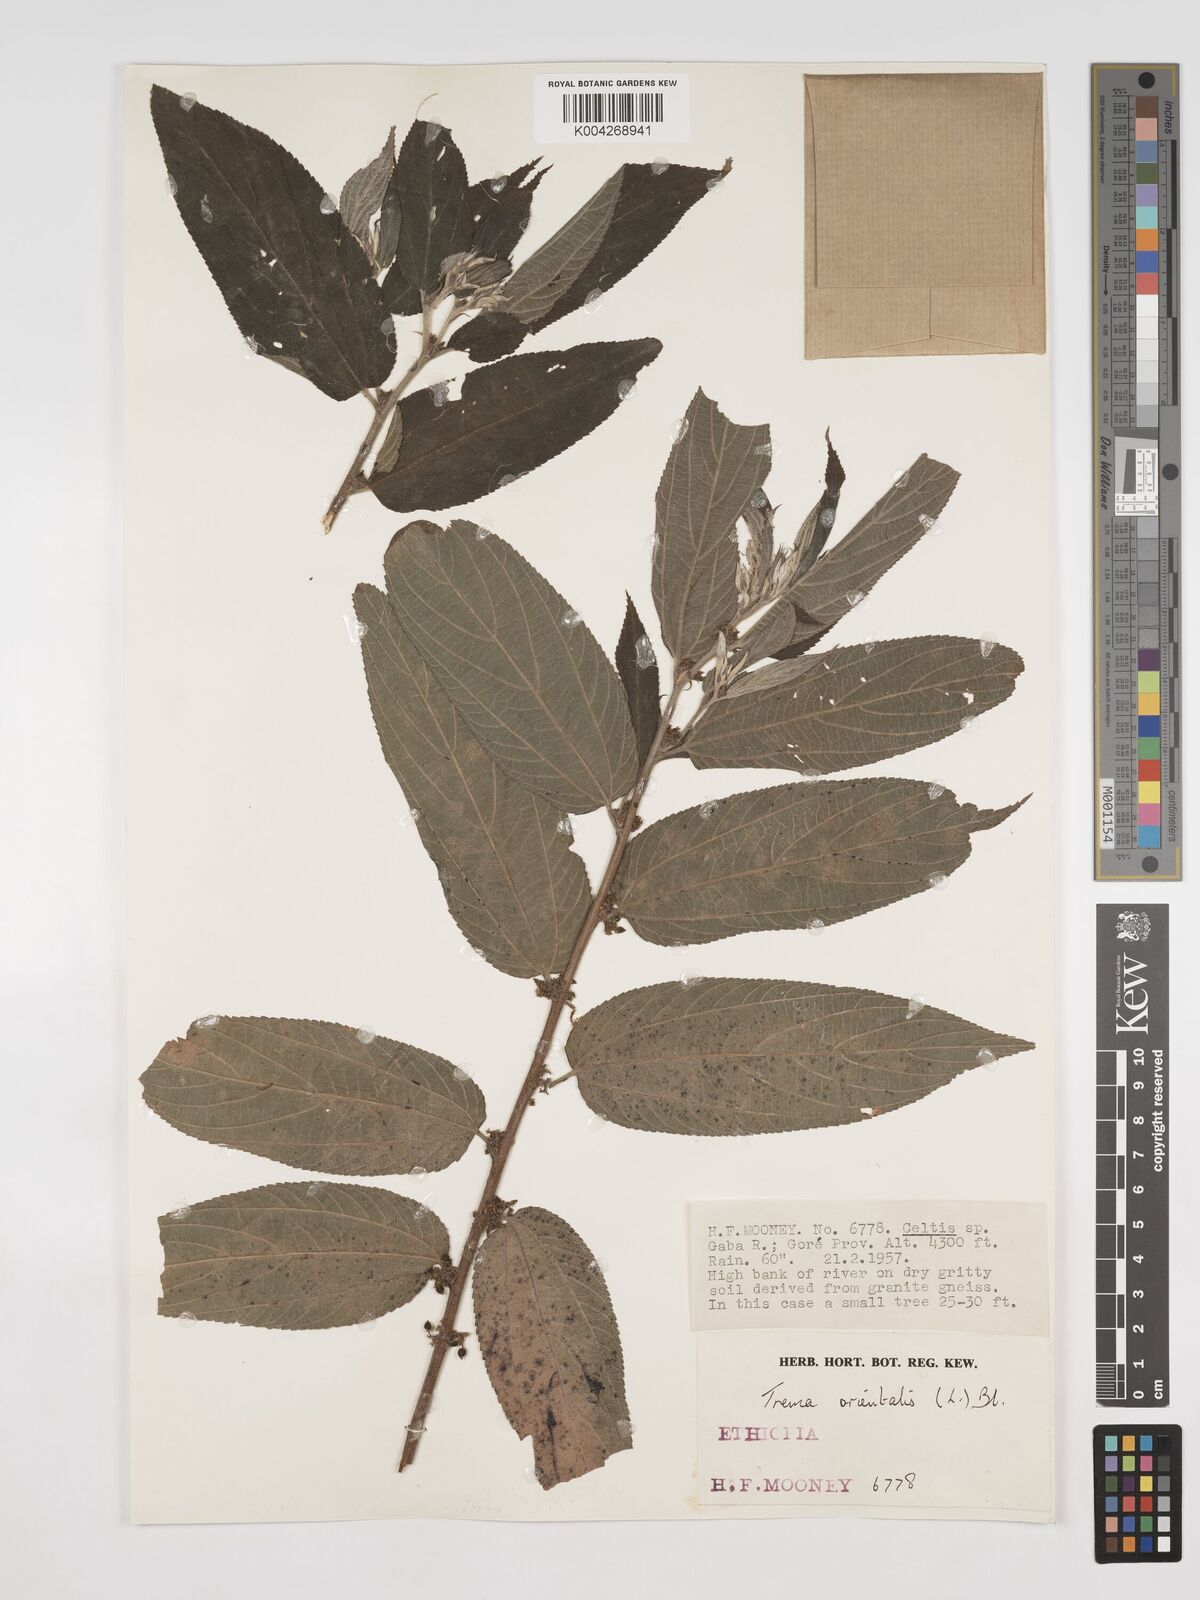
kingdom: Plantae
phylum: Tracheophyta
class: Magnoliopsida
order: Rosales
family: Cannabaceae
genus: Trema
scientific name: Trema orientale
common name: Indian charcoal tree
